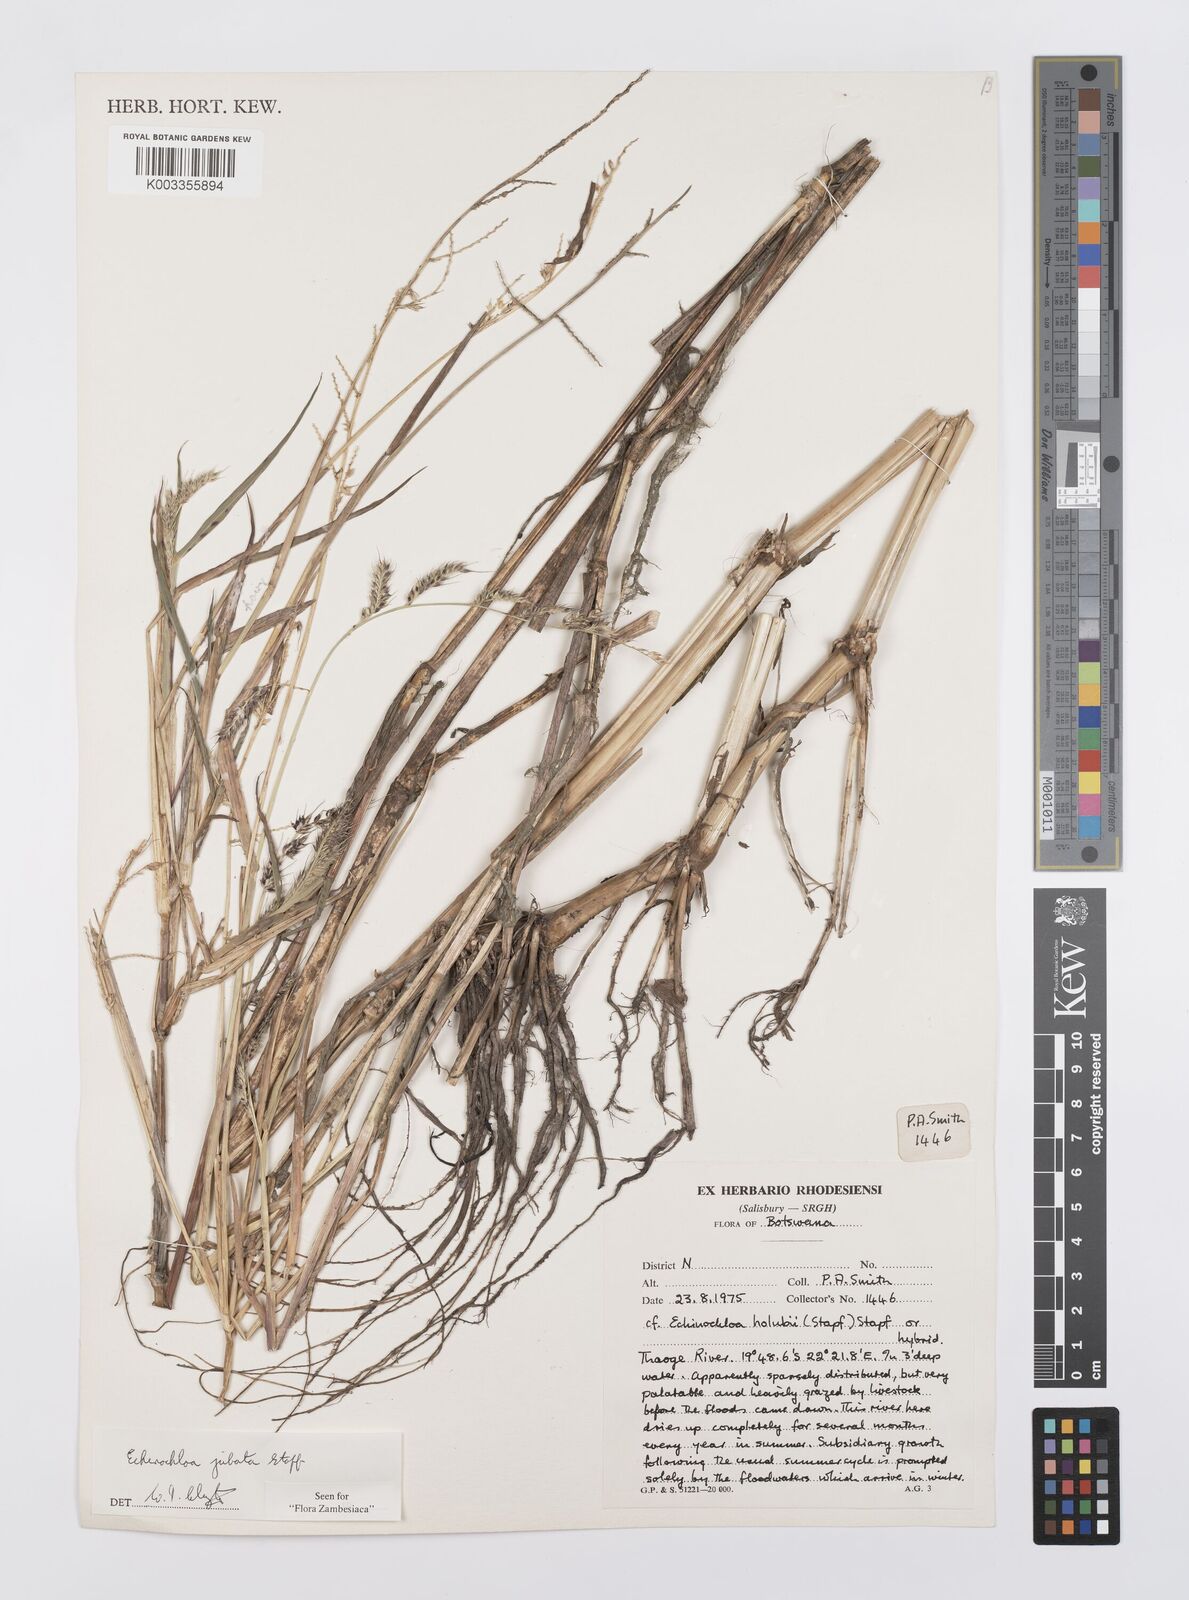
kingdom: Plantae
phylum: Tracheophyta
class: Liliopsida
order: Poales
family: Poaceae
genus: Echinochloa
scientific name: Echinochloa jubata
